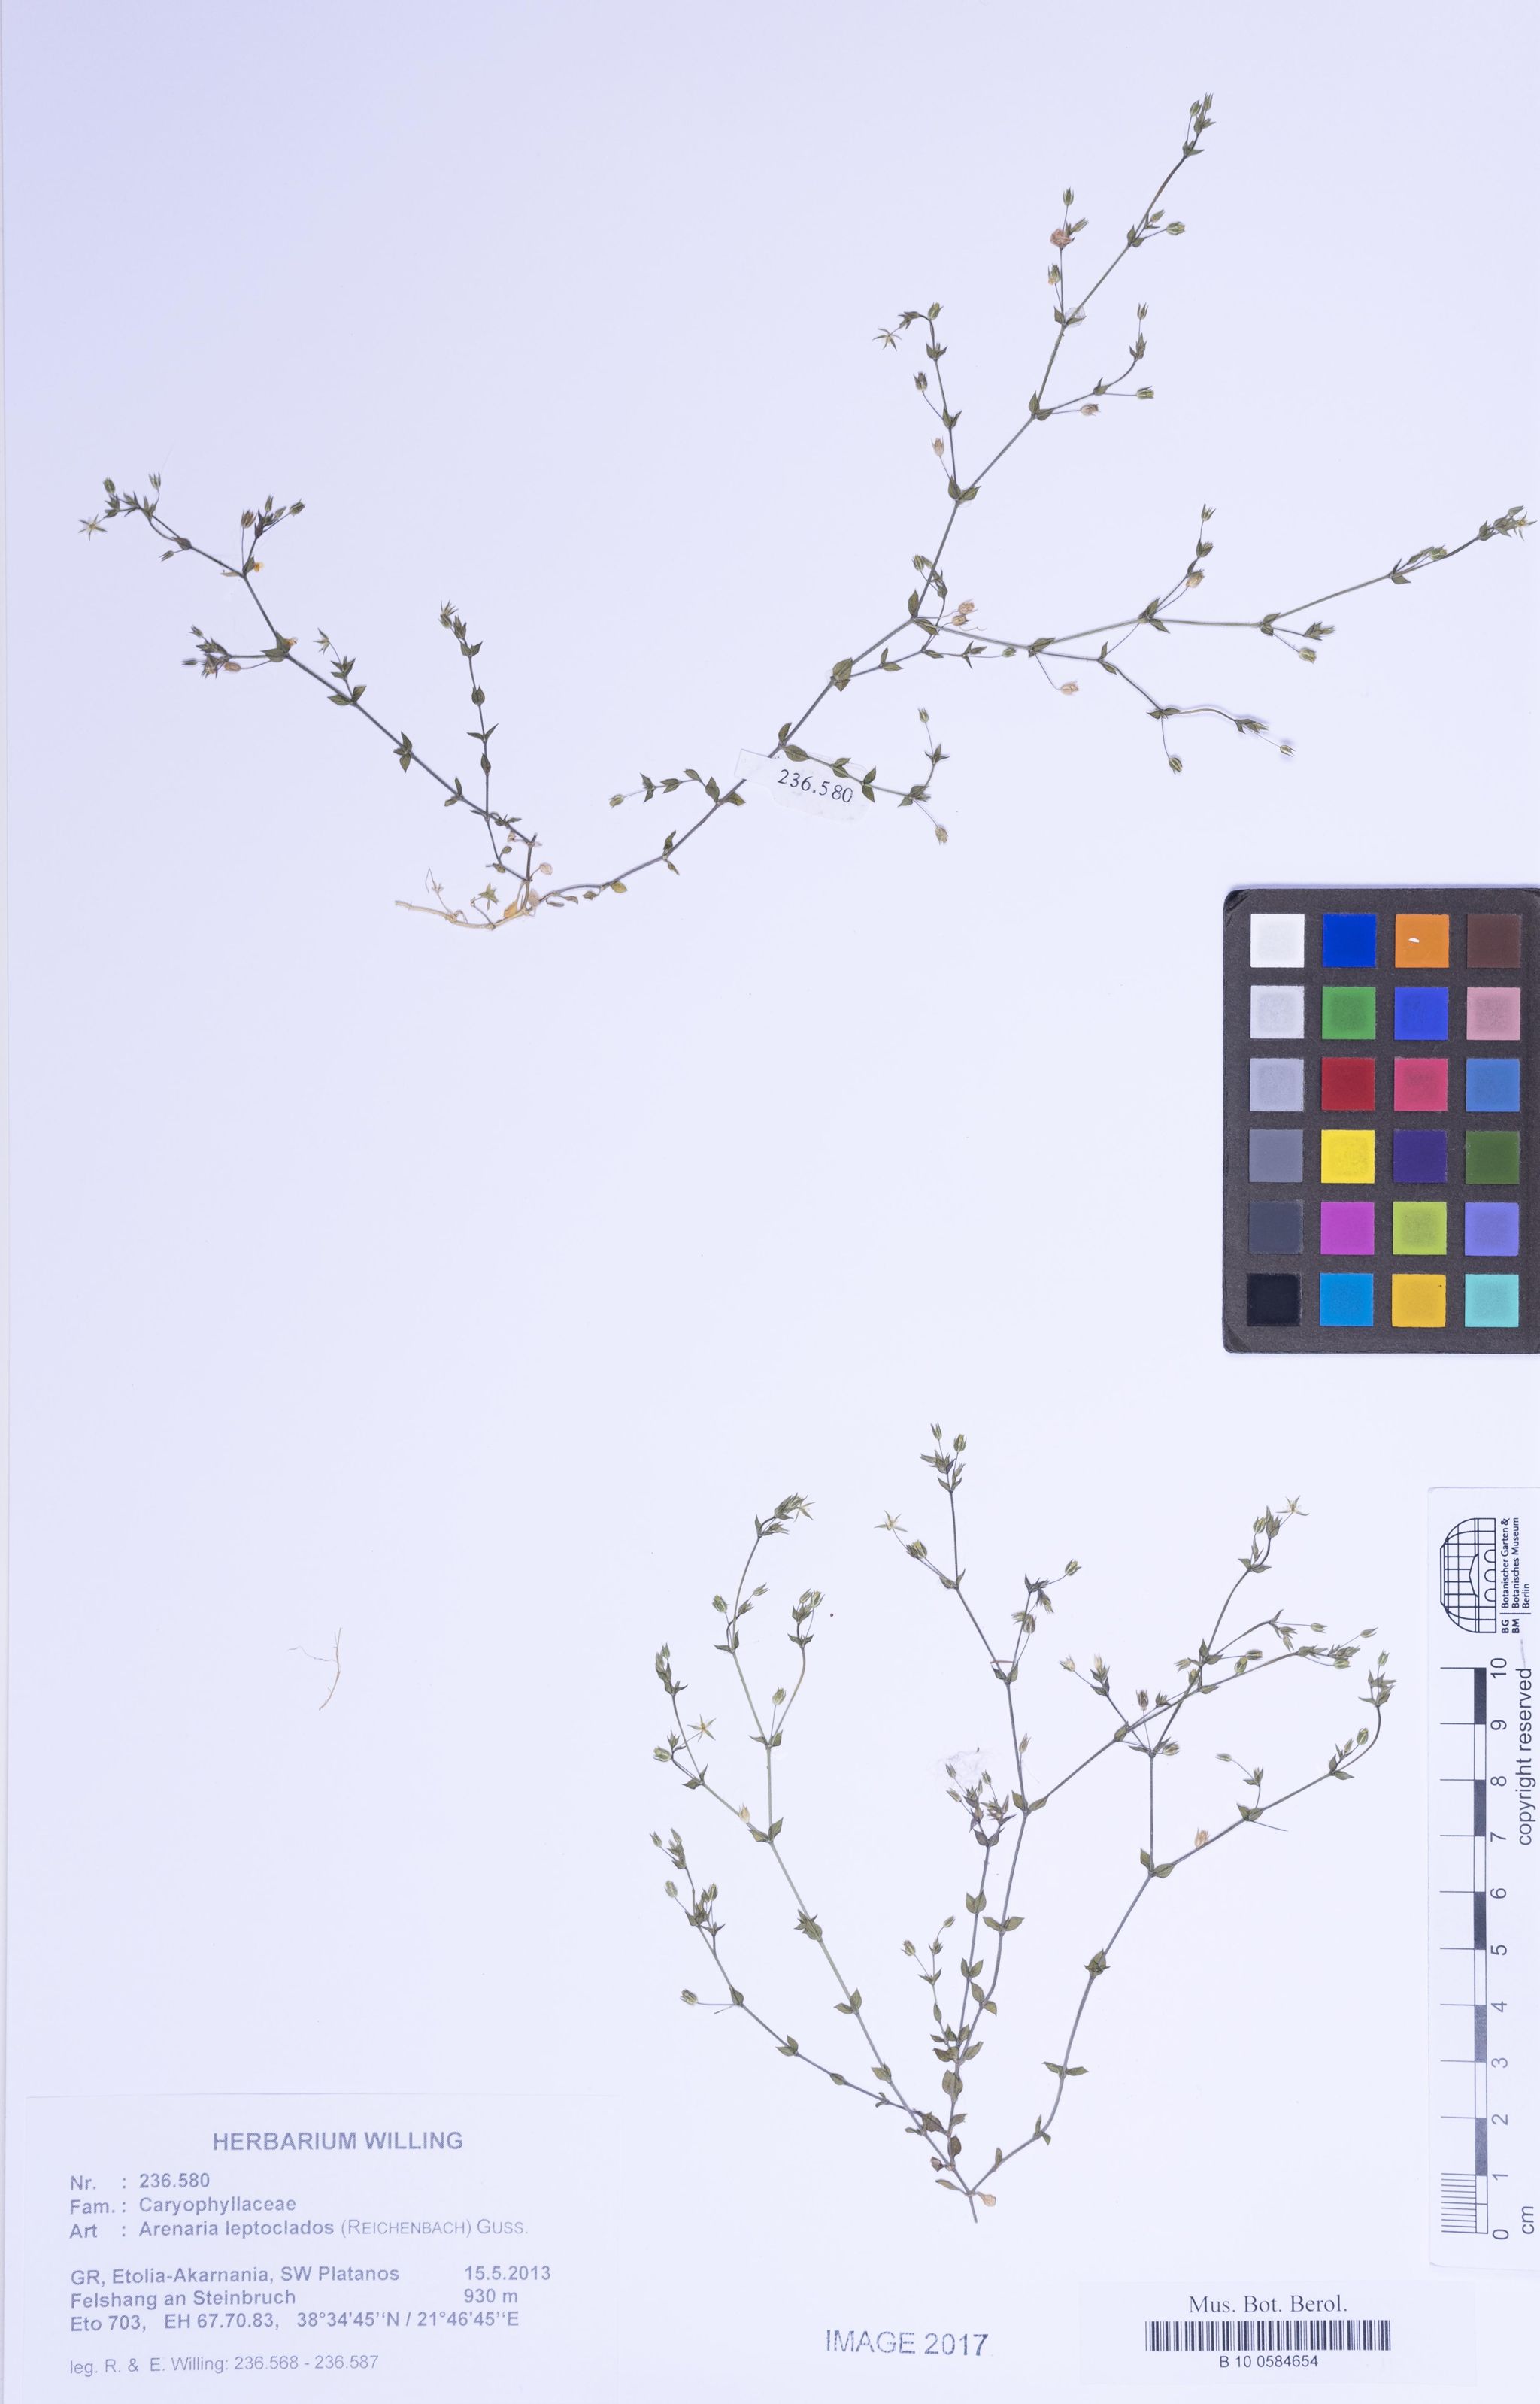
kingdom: Plantae
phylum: Tracheophyta
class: Magnoliopsida
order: Caryophyllales
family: Caryophyllaceae
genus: Arenaria
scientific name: Arenaria leptoclados
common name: Thyme-leaved sandwort
